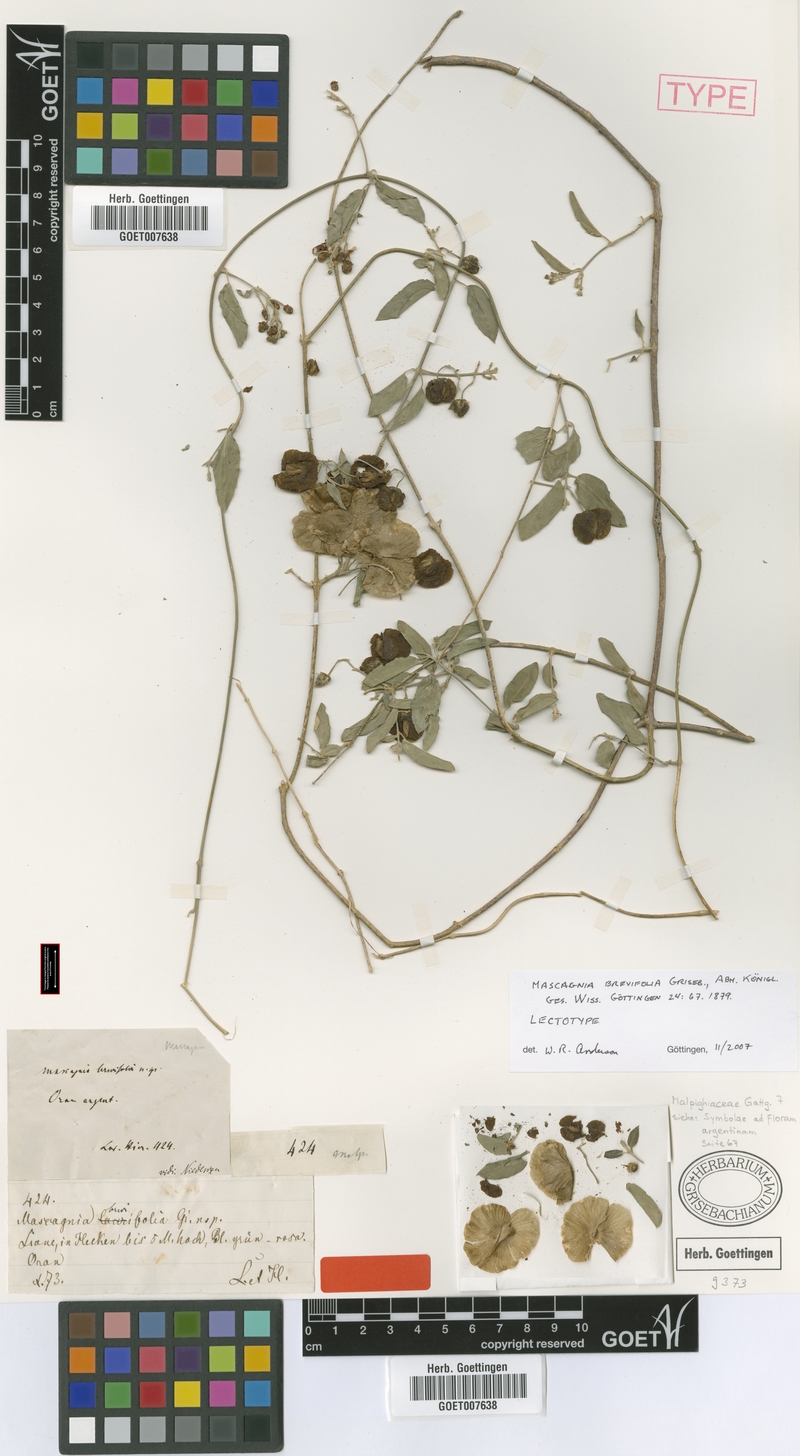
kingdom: Plantae
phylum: Tracheophyta
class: Magnoliopsida
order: Malpighiales
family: Malpighiaceae
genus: Mascagnia
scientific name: Mascagnia brevifolia
